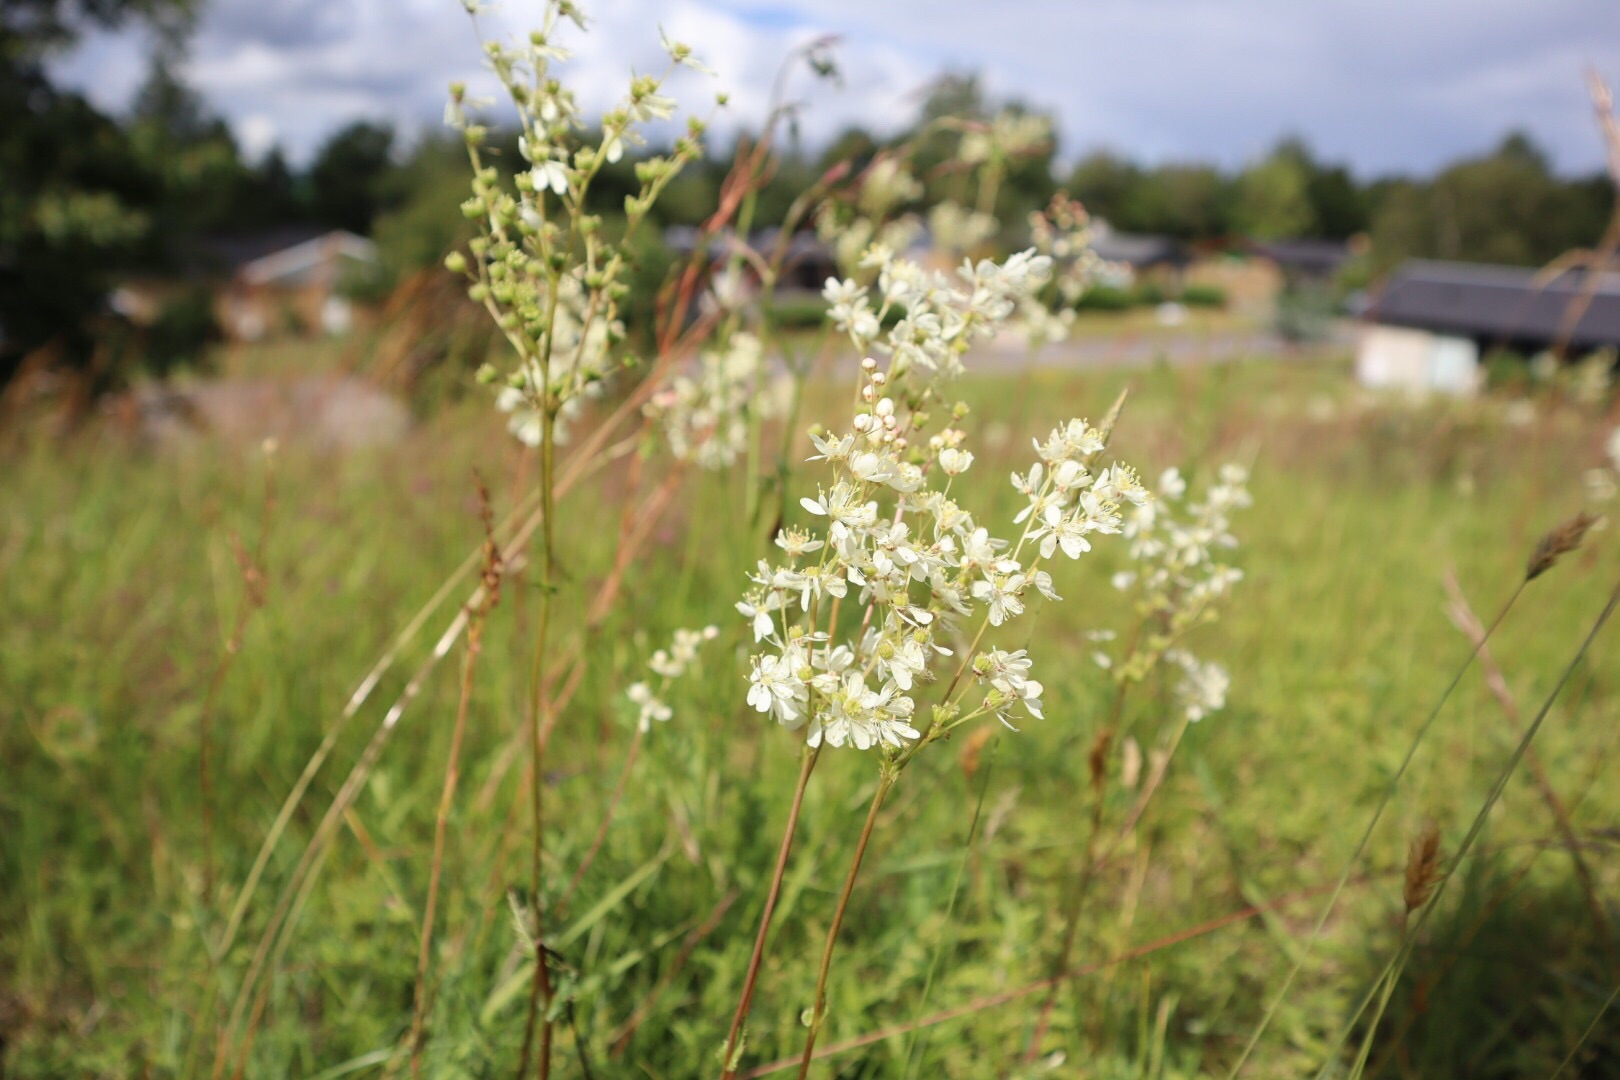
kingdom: Plantae
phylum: Tracheophyta
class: Magnoliopsida
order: Rosales
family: Rosaceae
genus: Filipendula
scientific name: Filipendula vulgaris
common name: Knoldet mjødurt
